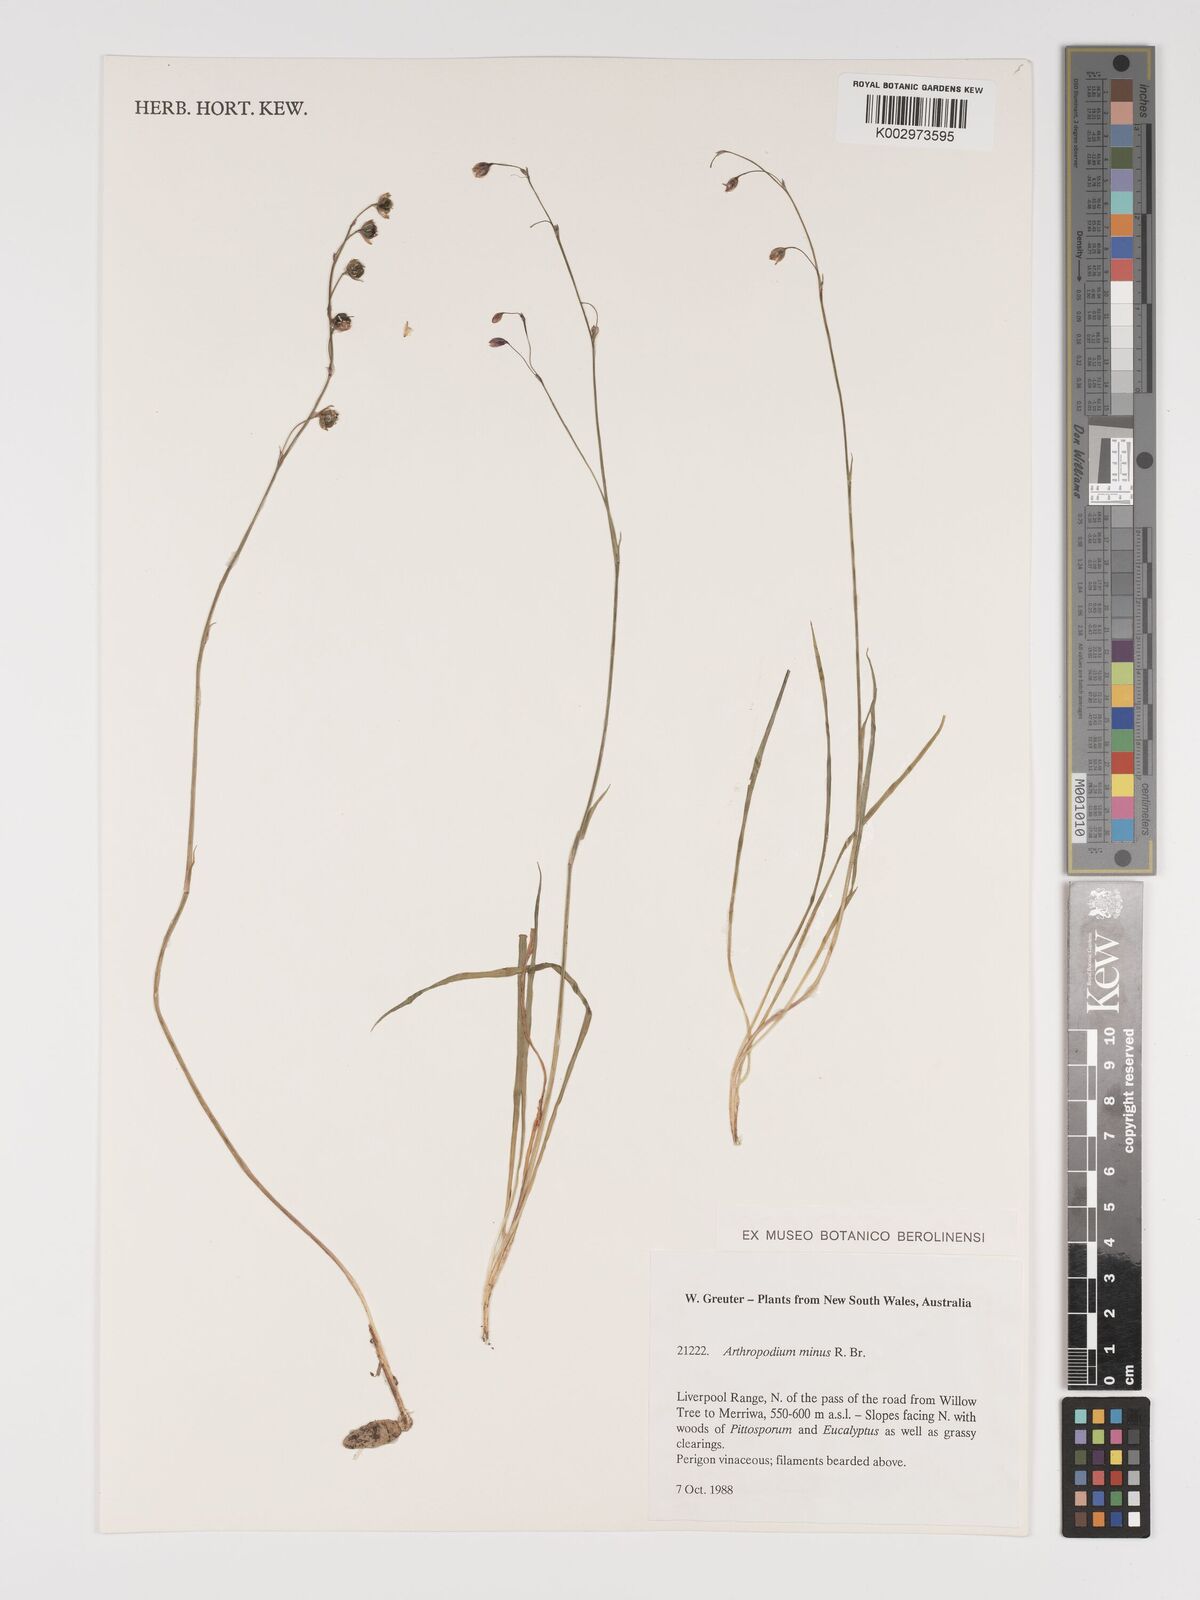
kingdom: Plantae
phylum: Tracheophyta
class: Liliopsida
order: Asparagales
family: Asparagaceae
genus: Arthropodium
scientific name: Arthropodium minus
